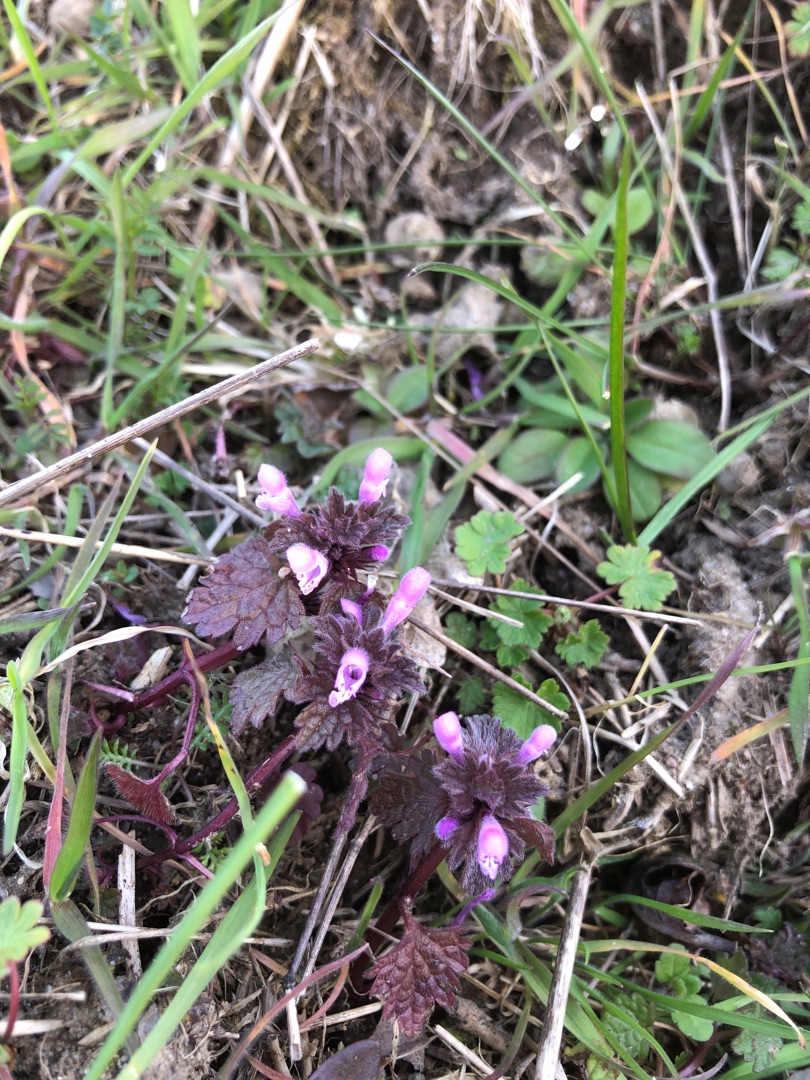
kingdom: Plantae
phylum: Tracheophyta
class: Magnoliopsida
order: Lamiales
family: Lamiaceae
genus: Lamium
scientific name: Lamium hybridum
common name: Fliget tvetand
